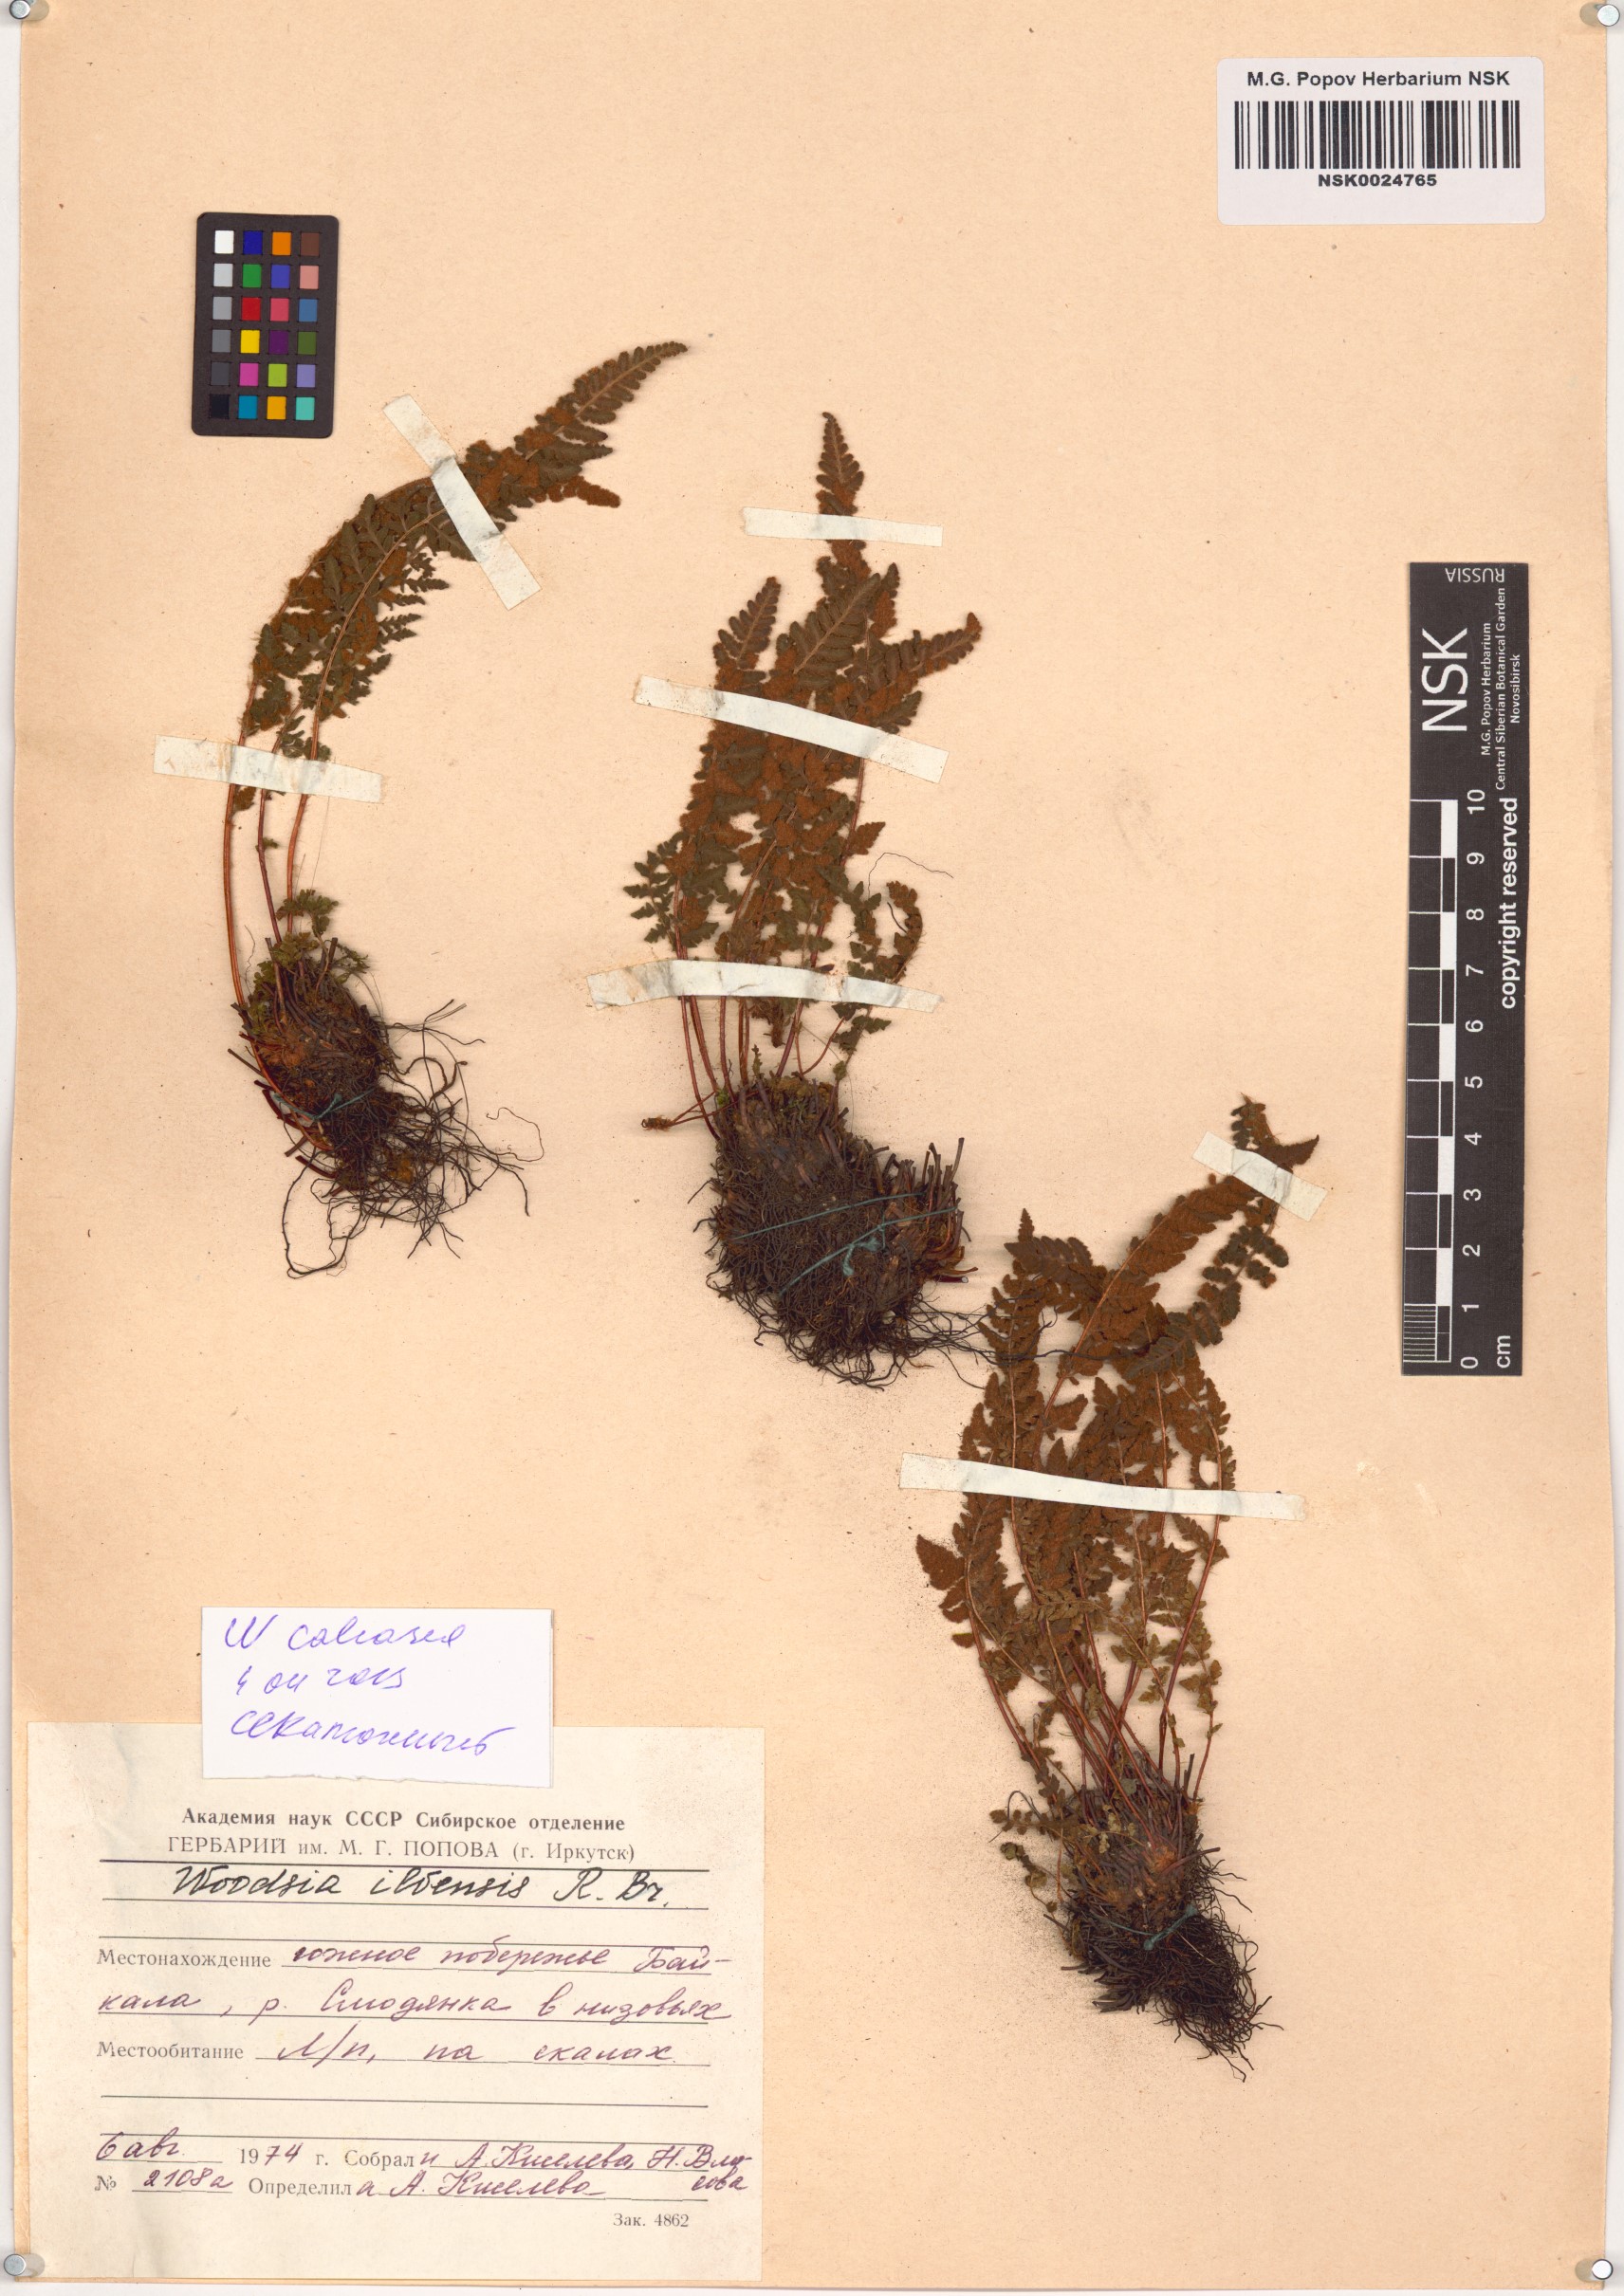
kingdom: Plantae
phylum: Tracheophyta
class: Polypodiopsida
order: Polypodiales
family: Woodsiaceae
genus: Woodsia
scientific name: Woodsia calcarea
